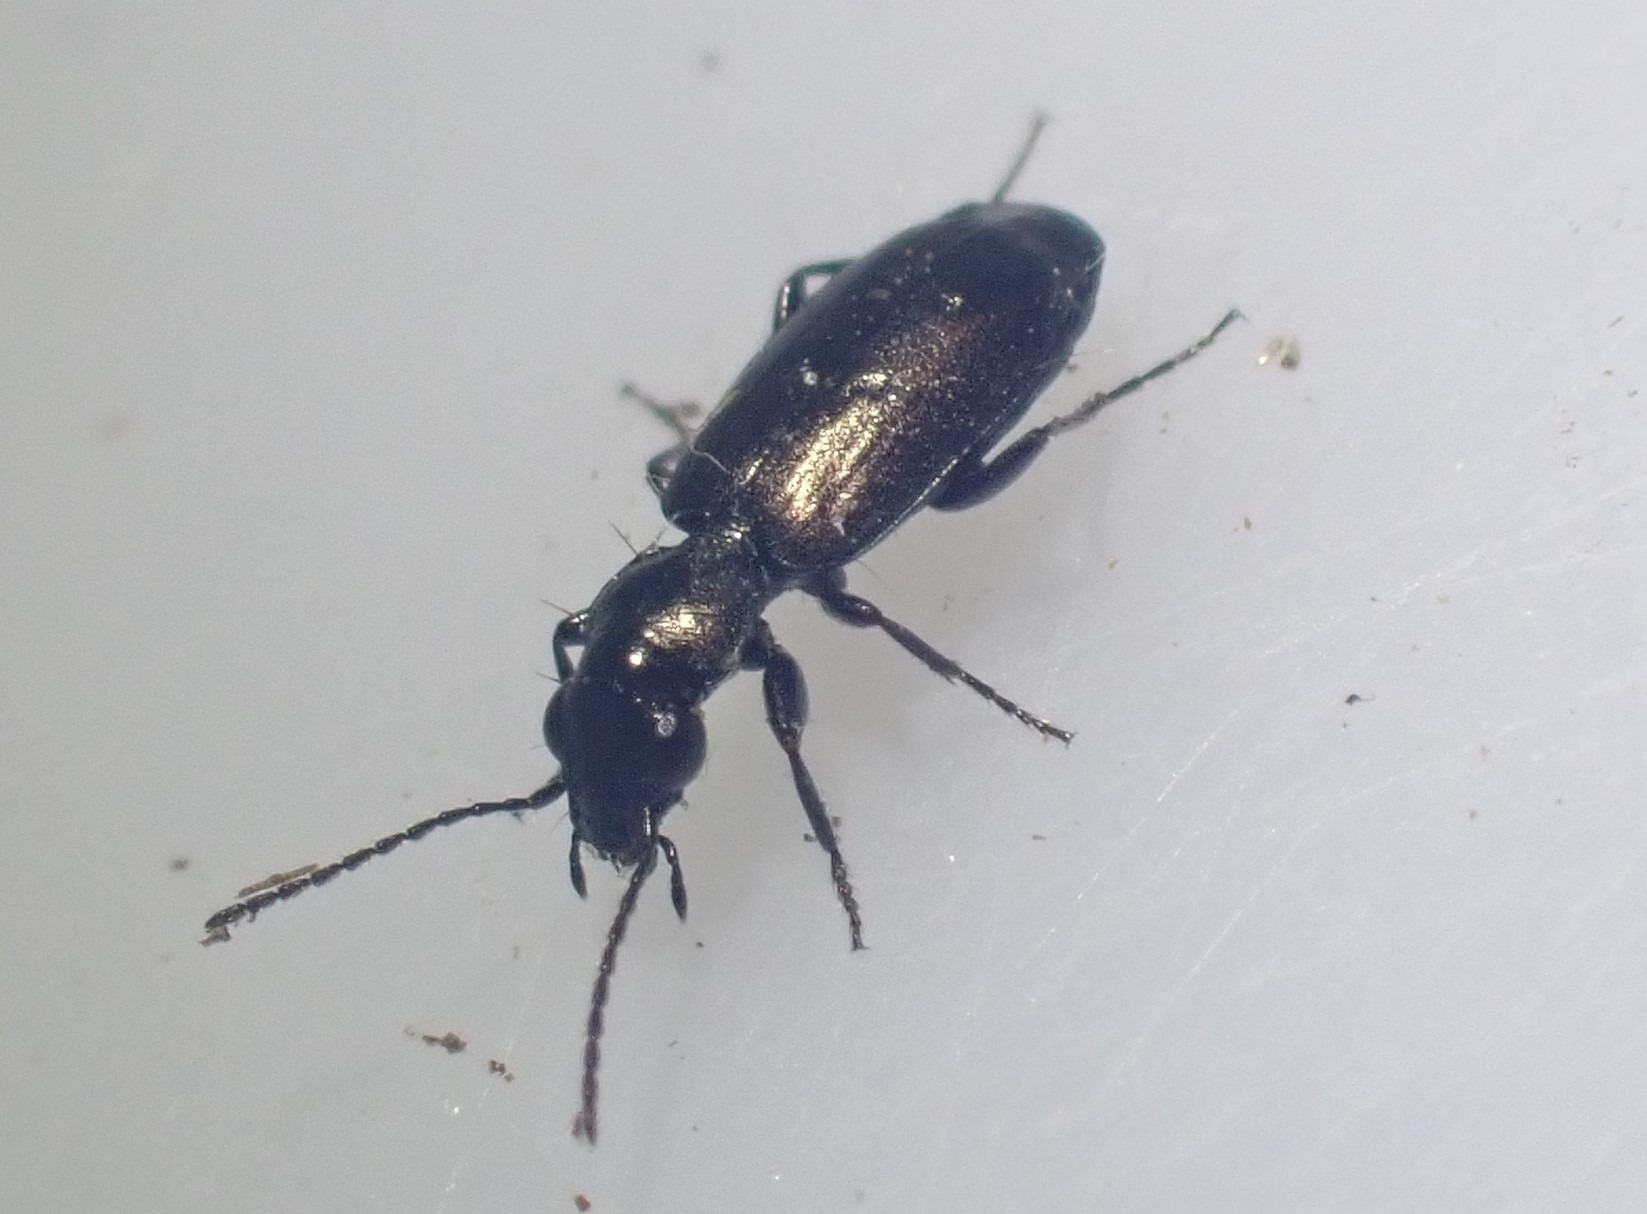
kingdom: Animalia
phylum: Arthropoda
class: Insecta
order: Coleoptera
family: Carabidae
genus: Syntomus
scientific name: Syntomus foveatus
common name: Bronzestumpløber
